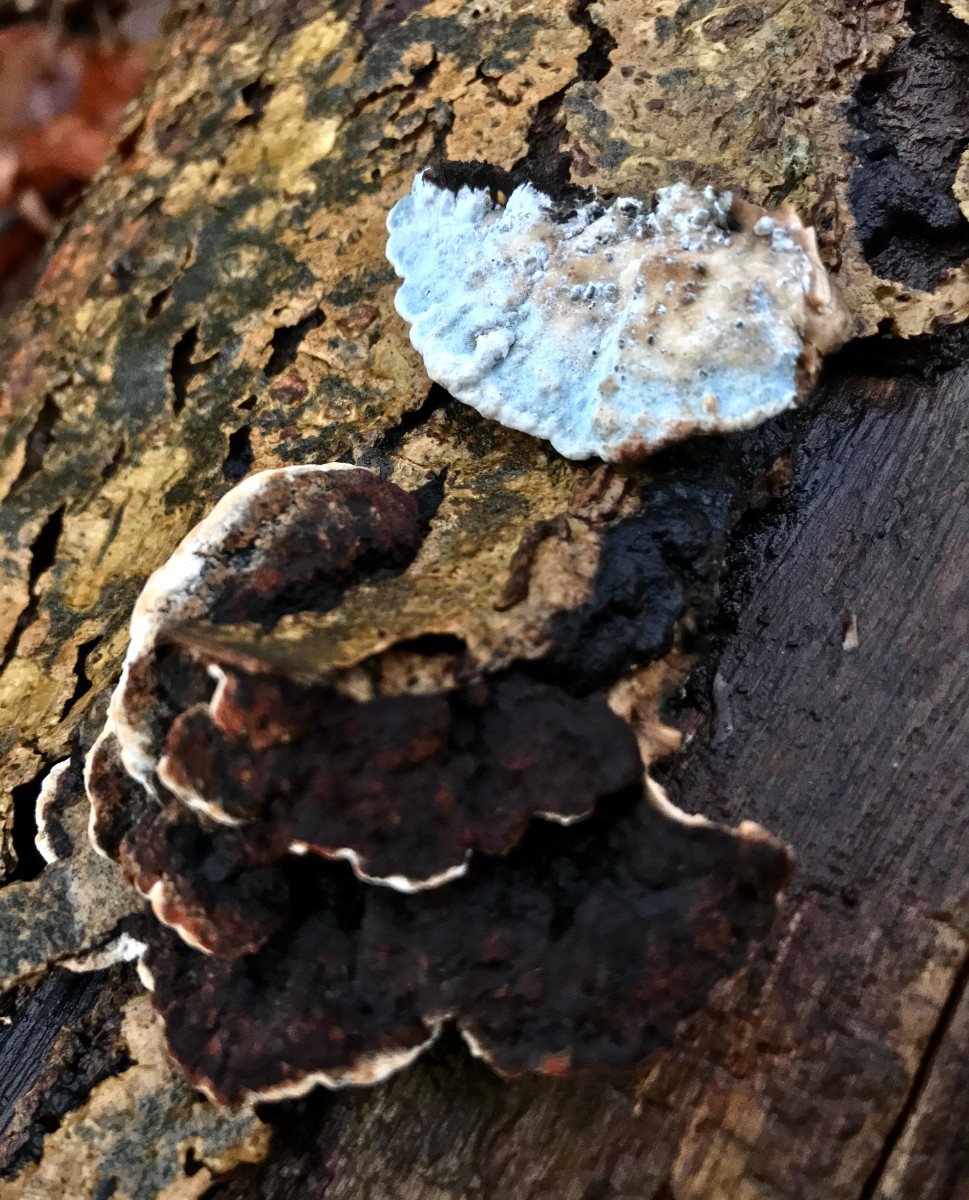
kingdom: Fungi
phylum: Basidiomycota
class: Agaricomycetes
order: Polyporales
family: Incrustoporiaceae
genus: Skeletocutis
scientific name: Skeletocutis nemoralis
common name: stor krystalporesvamp
